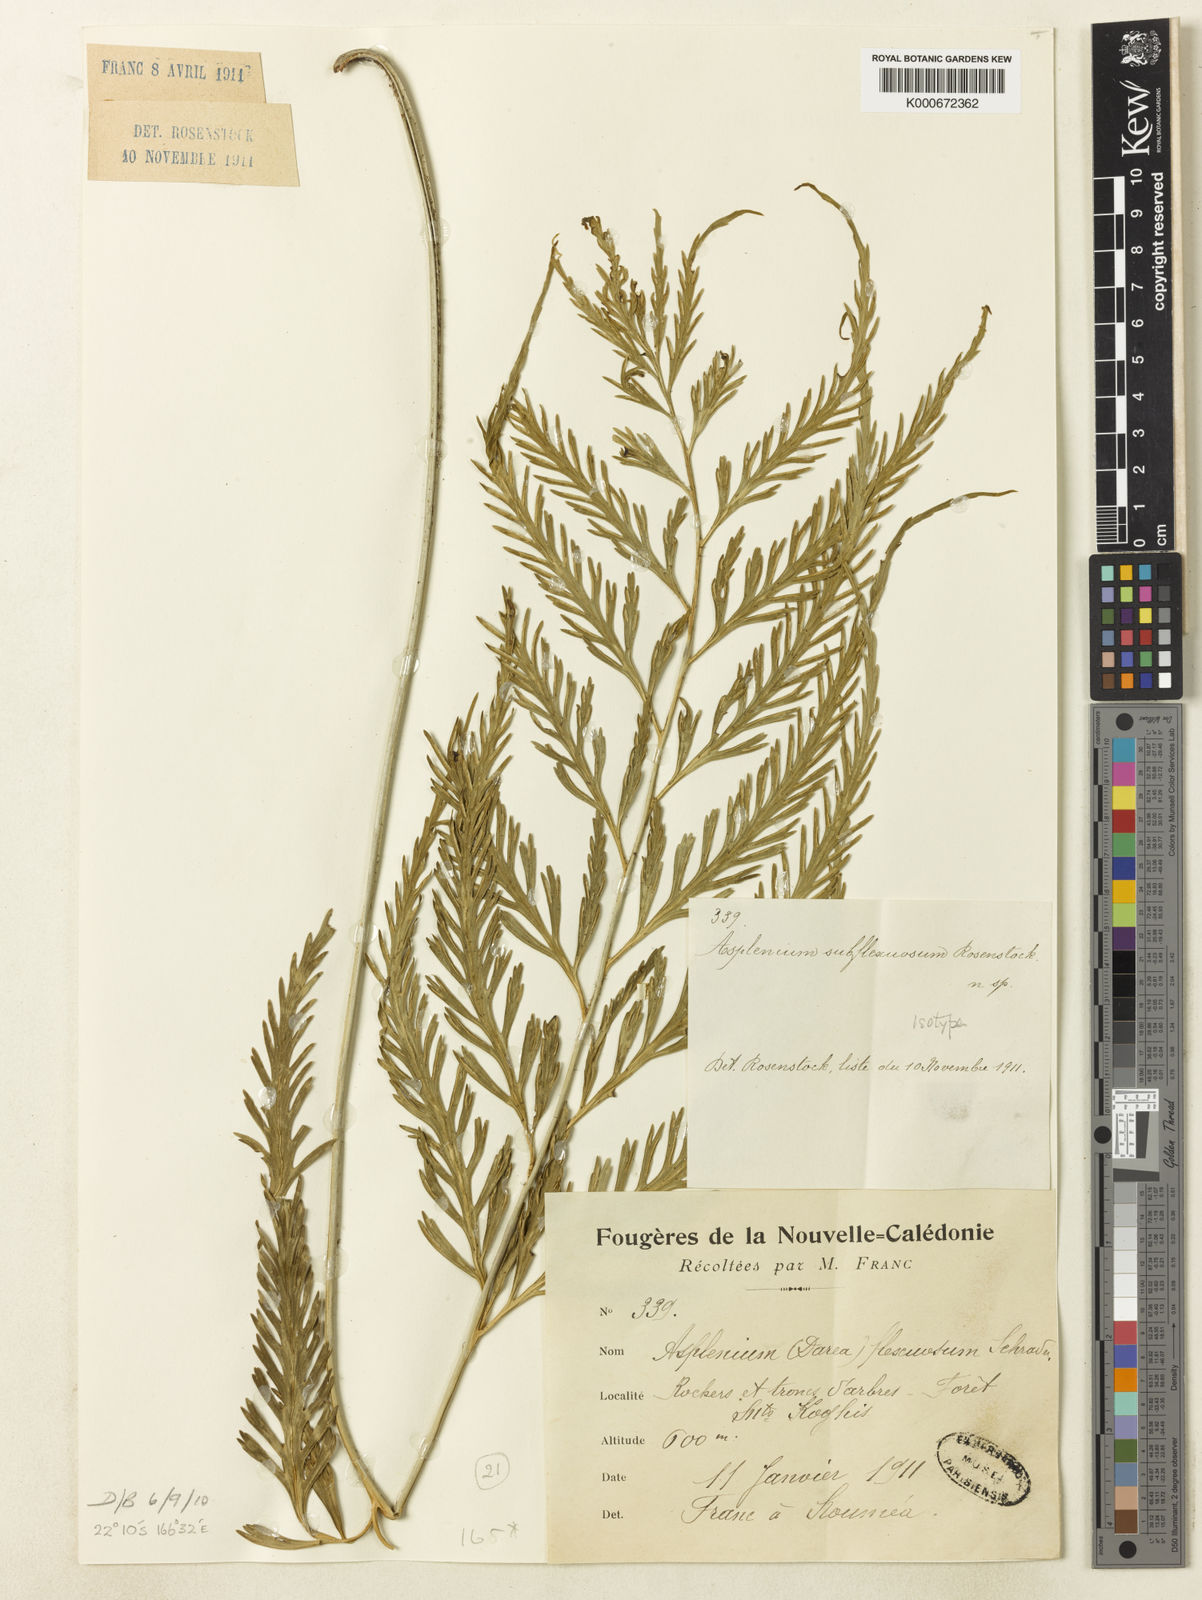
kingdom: Plantae
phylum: Tracheophyta
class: Polypodiopsida
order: Polypodiales
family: Aspleniaceae
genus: Asplenium
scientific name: Asplenium subflexuosum
